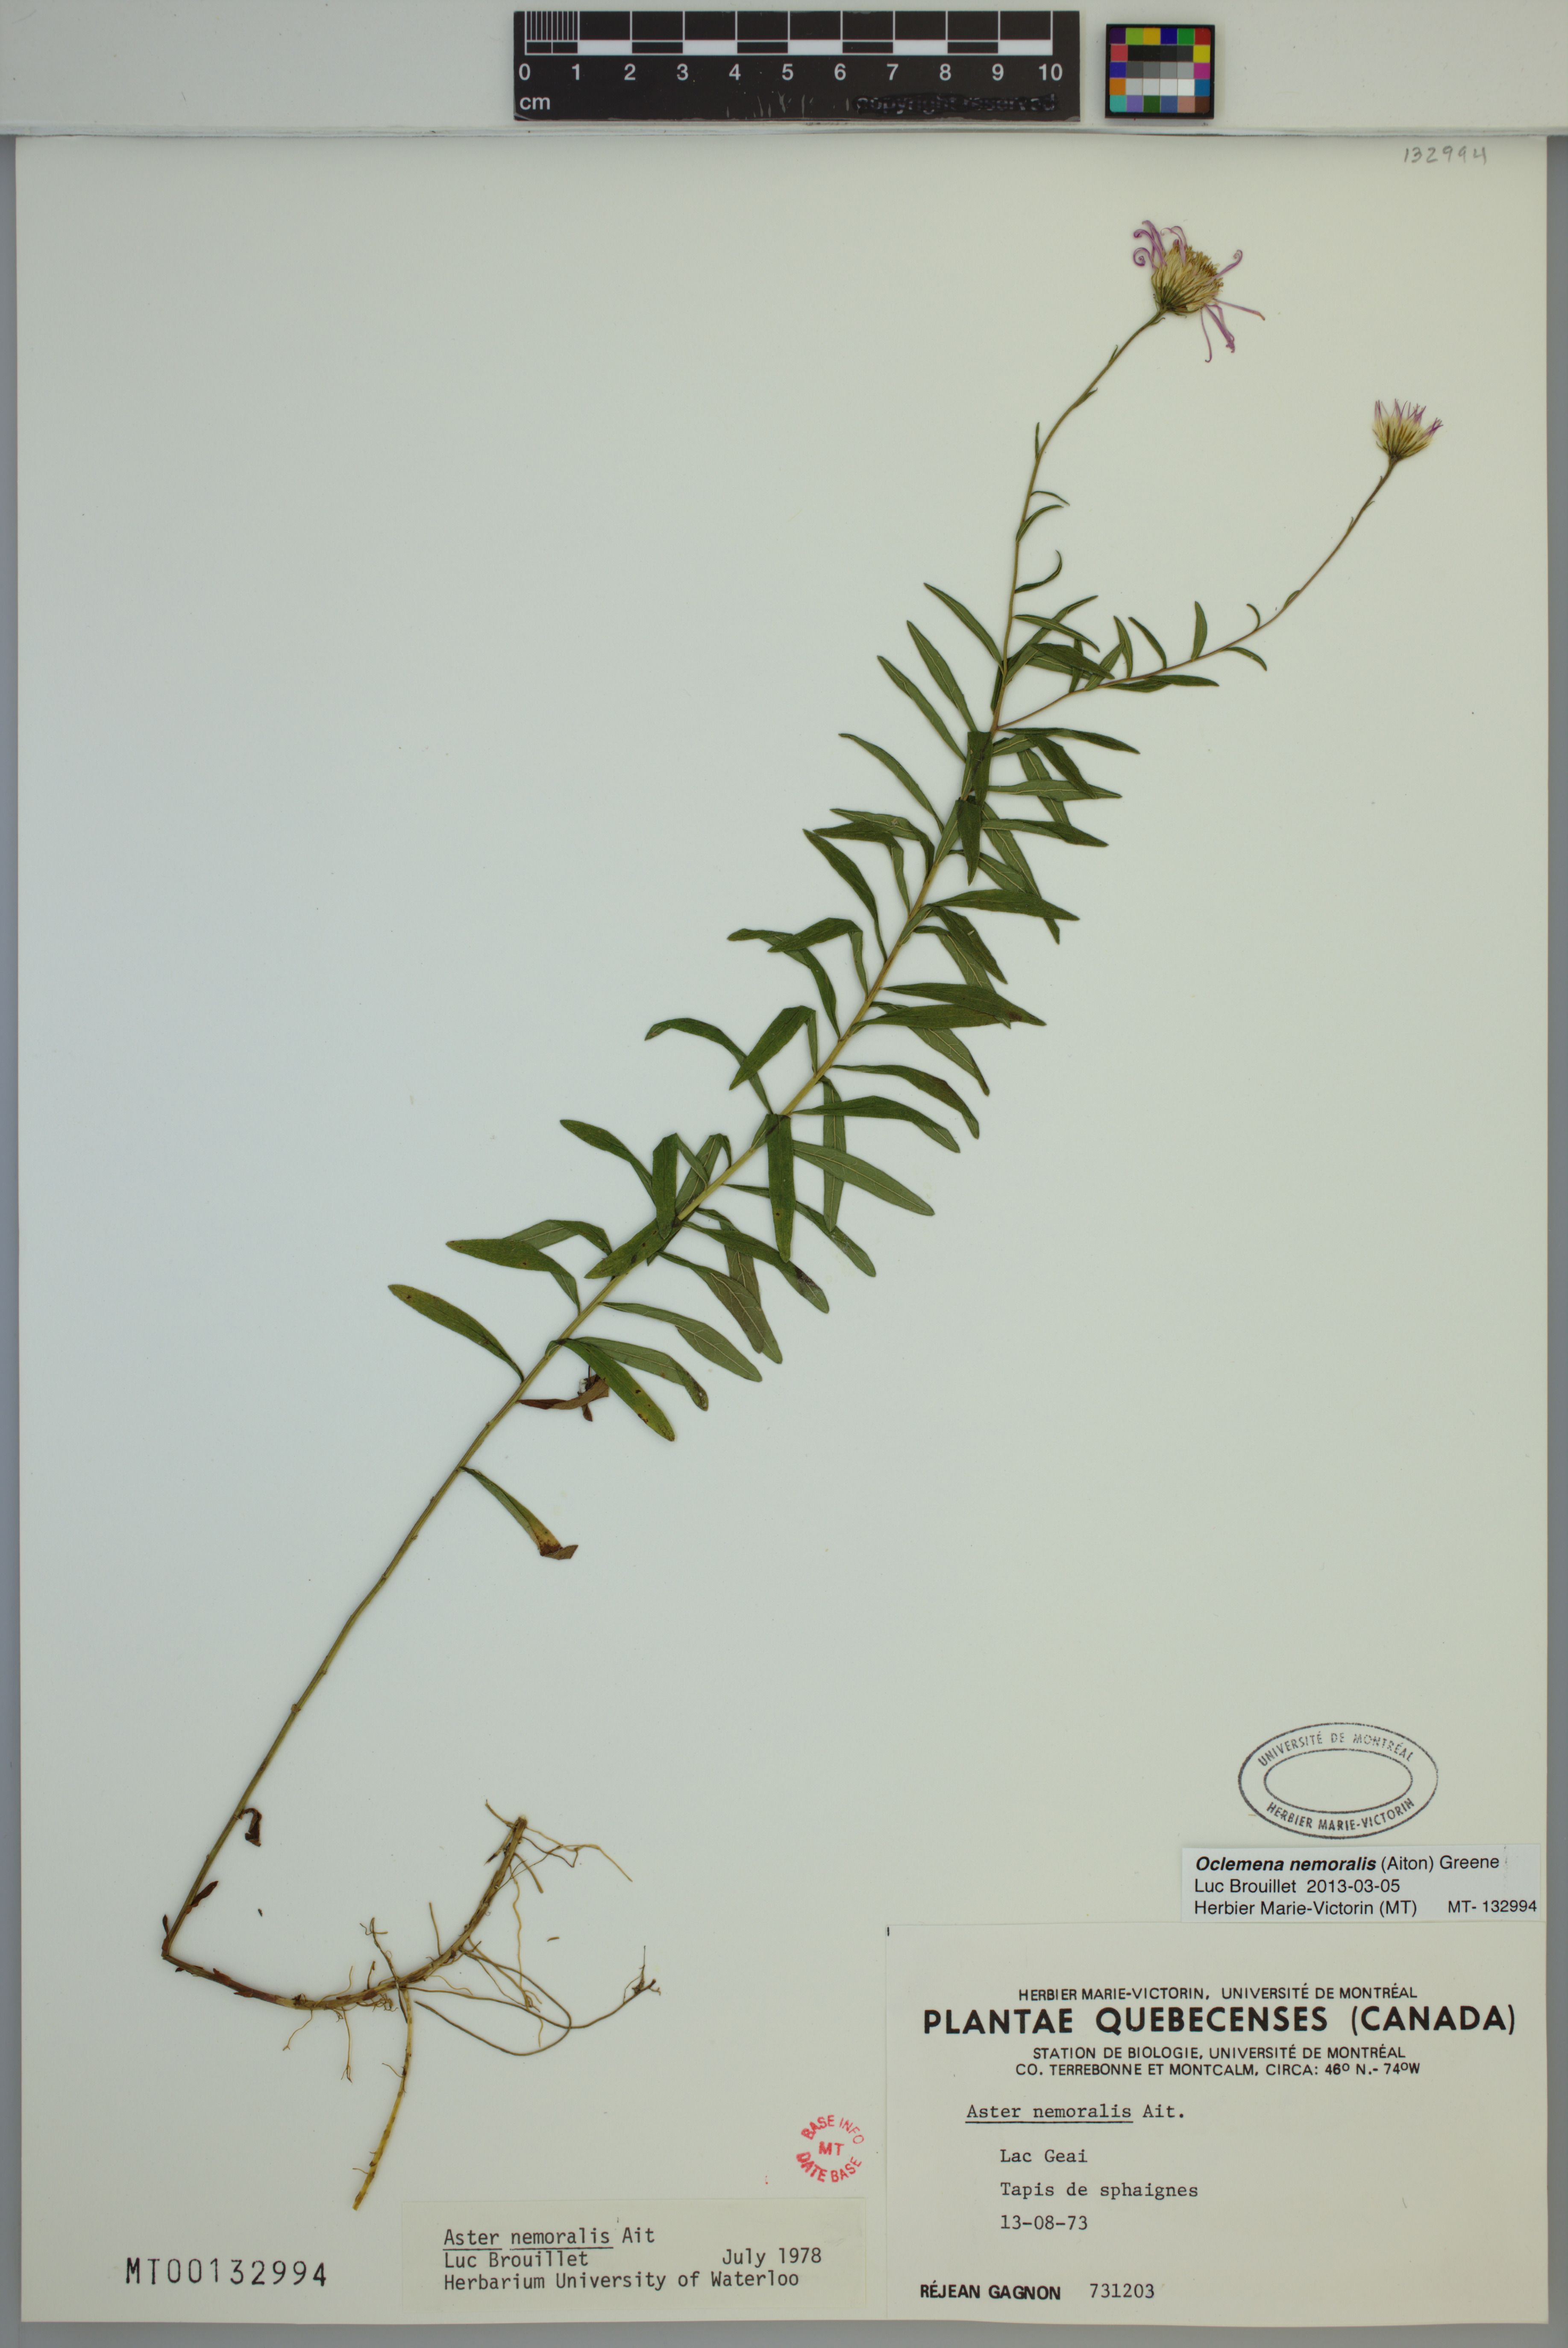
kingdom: Plantae
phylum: Tracheophyta
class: Magnoliopsida
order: Asterales
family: Asteraceae
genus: Oclemena
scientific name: Oclemena nemoralis
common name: Bog aster
